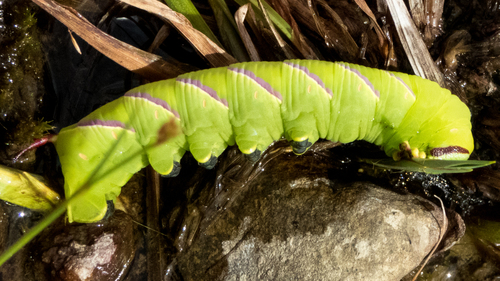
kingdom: Animalia
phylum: Arthropoda
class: Insecta
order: Lepidoptera
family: Sphingidae
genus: Sphinx
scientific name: Sphinx kalmiae
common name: Laurel sphinx
